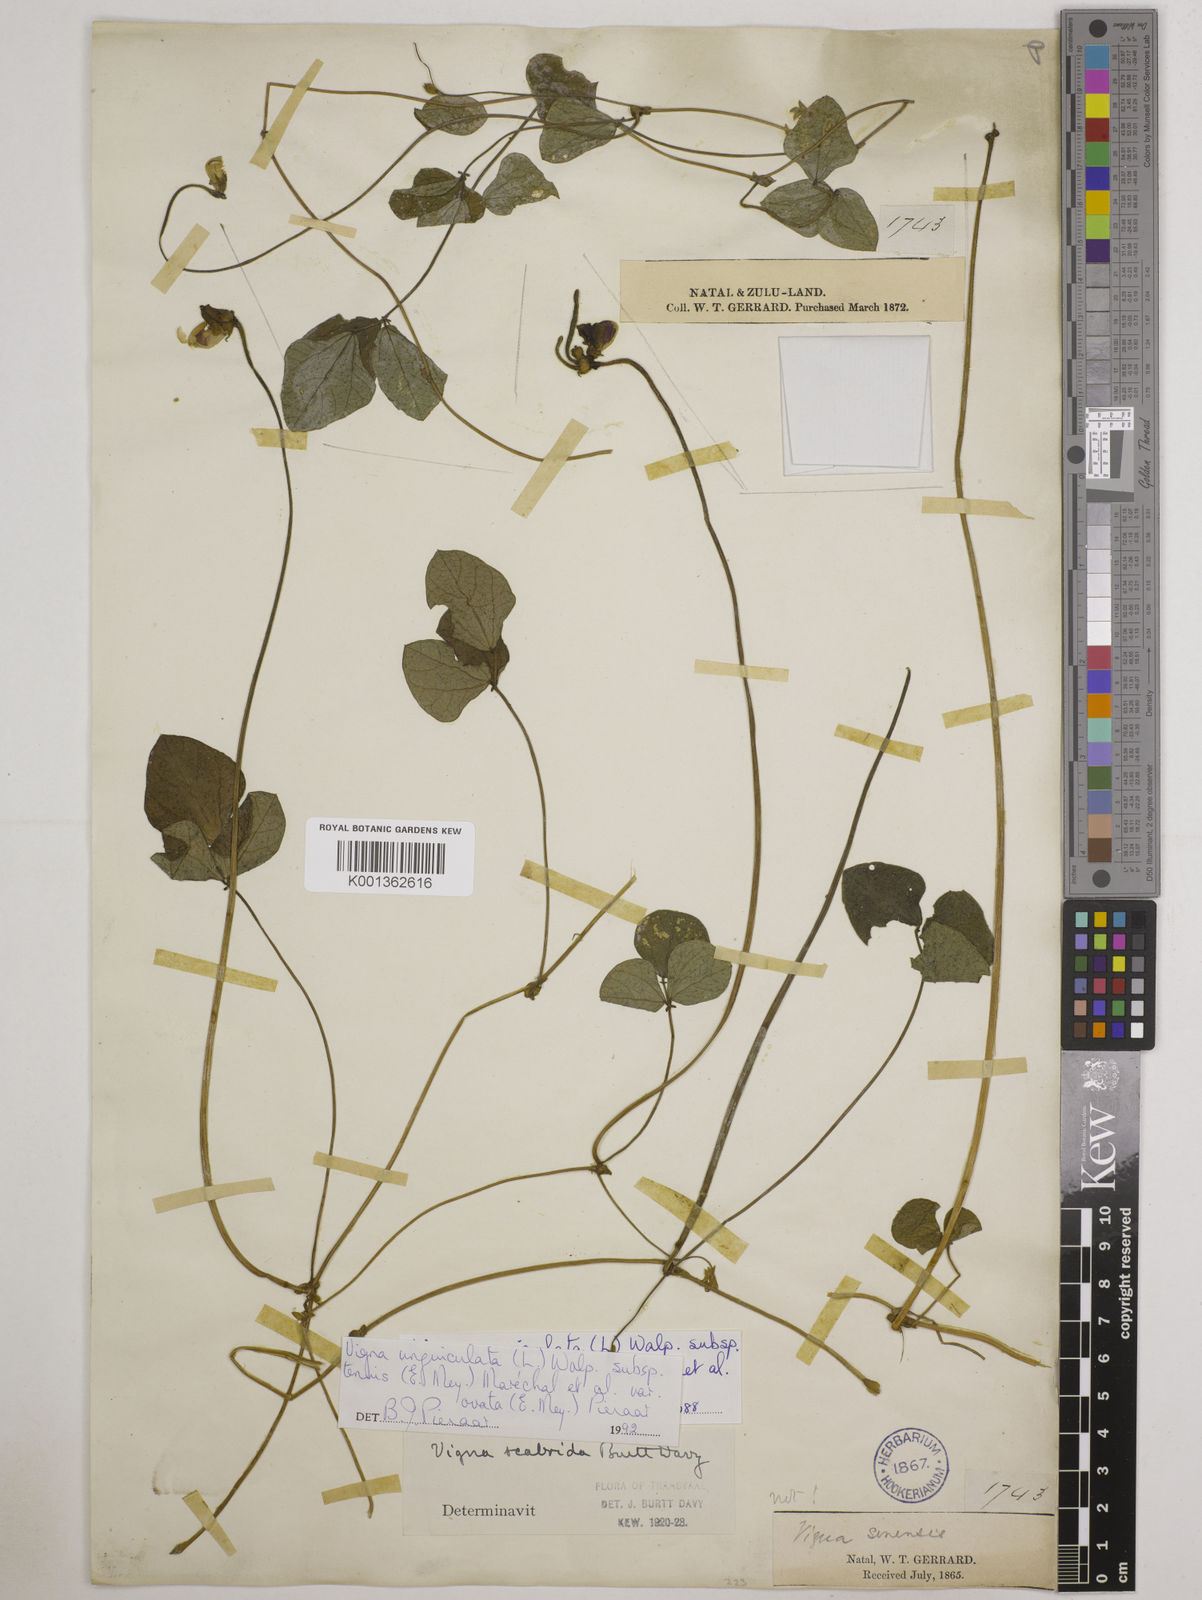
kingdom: Plantae
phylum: Tracheophyta
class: Magnoliopsida
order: Fabales
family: Fabaceae
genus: Vigna
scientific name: Vigna
